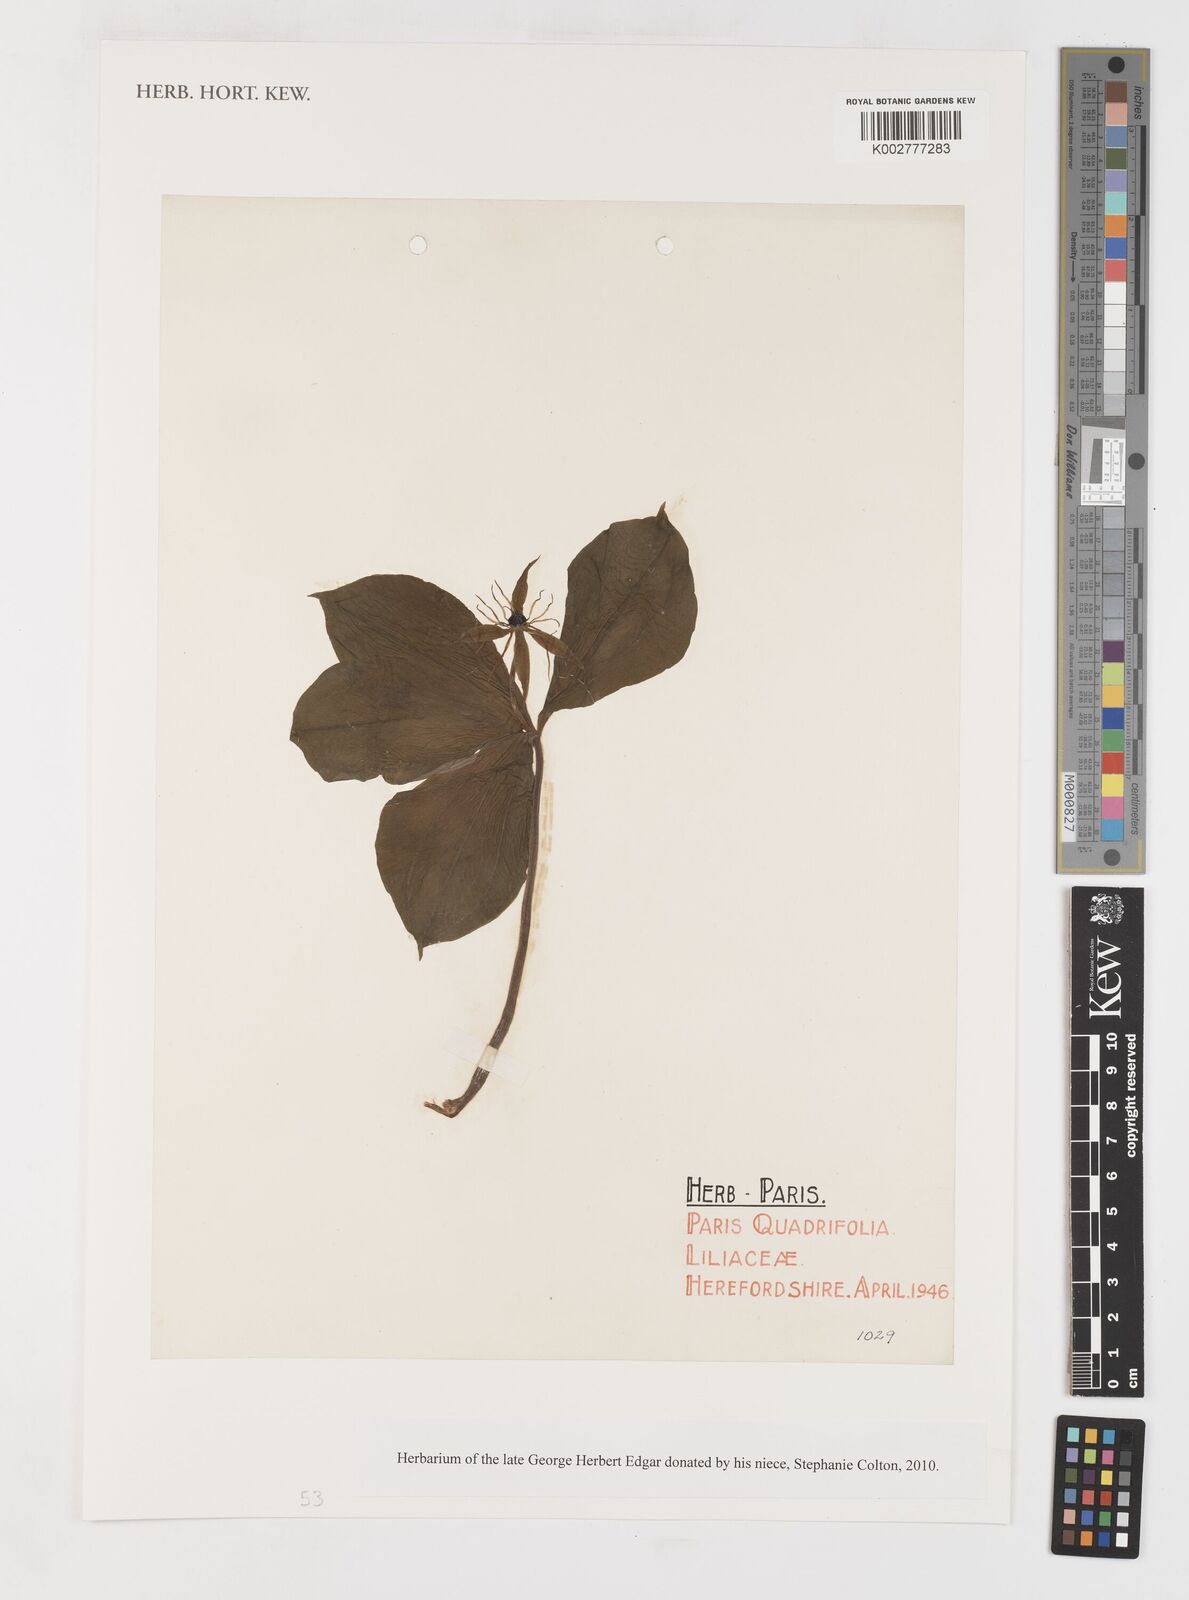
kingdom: Plantae
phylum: Tracheophyta
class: Liliopsida
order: Liliales
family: Melanthiaceae
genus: Paris
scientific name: Paris quadrifolia
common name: Herb-paris
